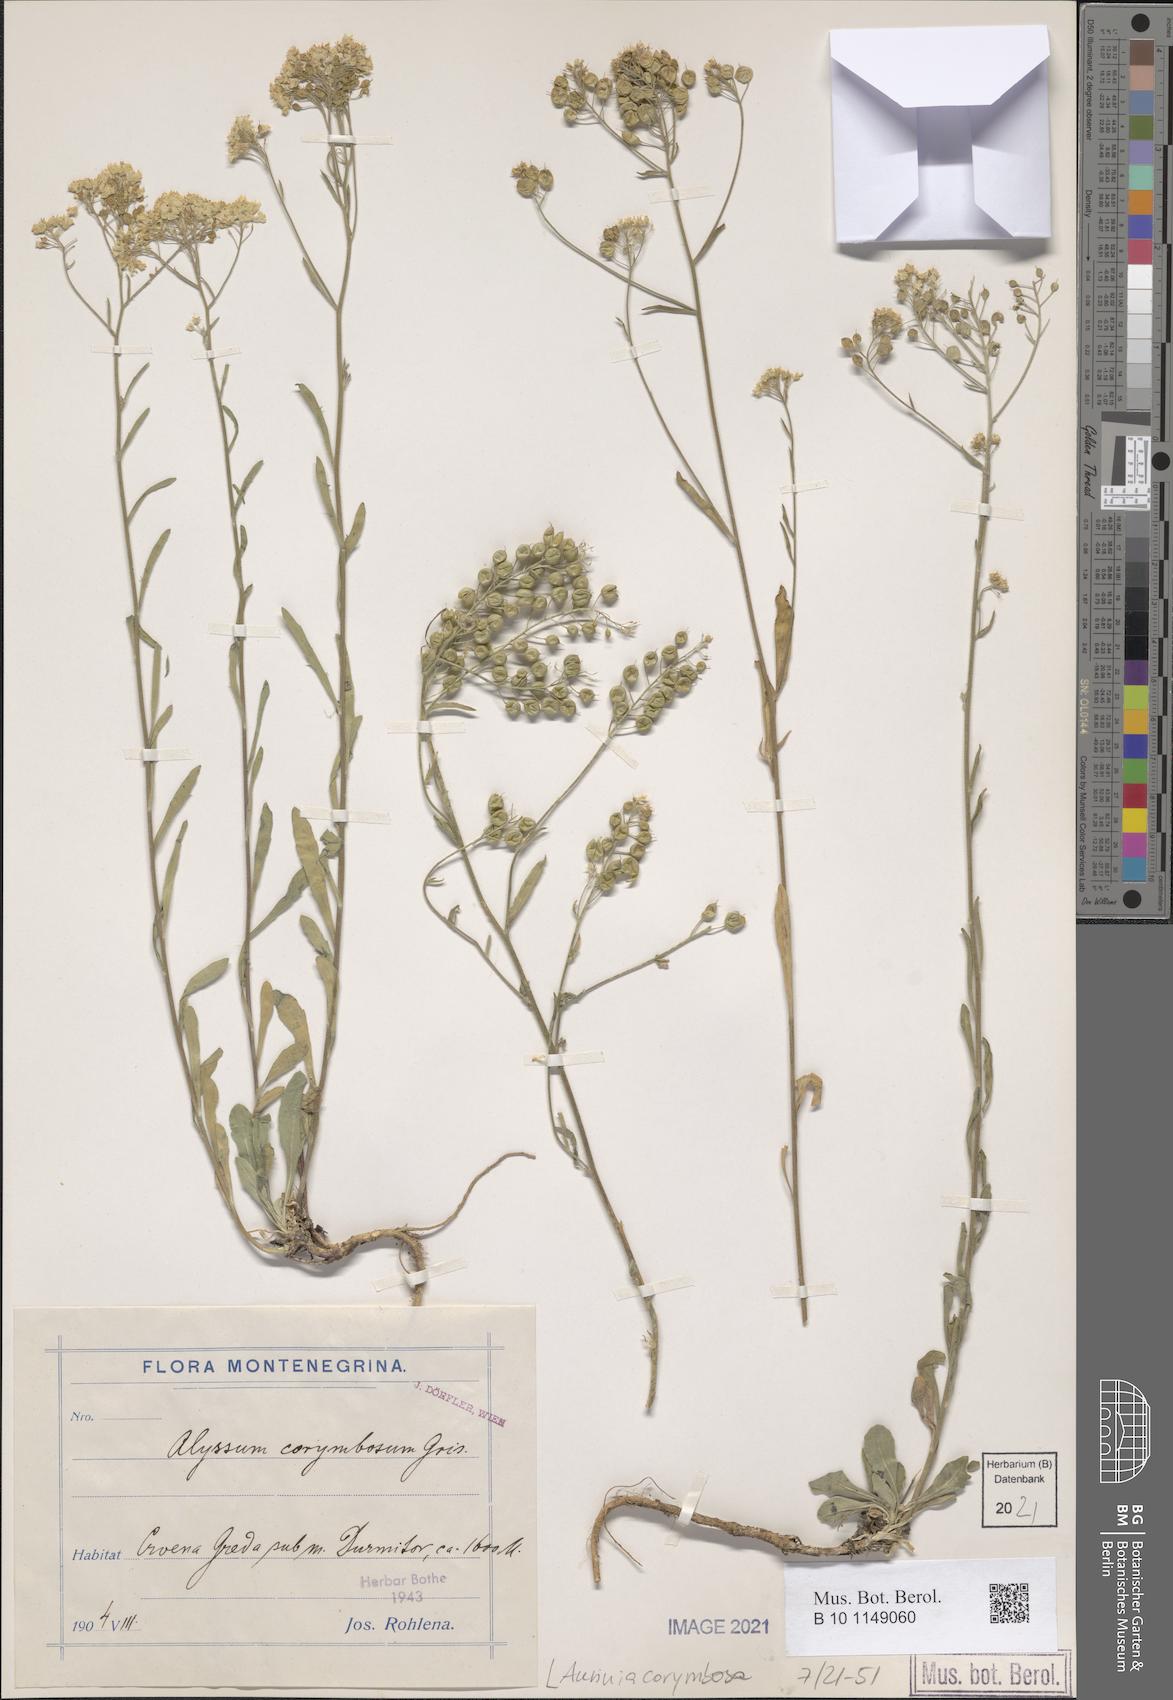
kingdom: Plantae
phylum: Tracheophyta
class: Magnoliopsida
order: Brassicales
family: Brassicaceae
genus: Aurinia
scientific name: Aurinia corymbosa
